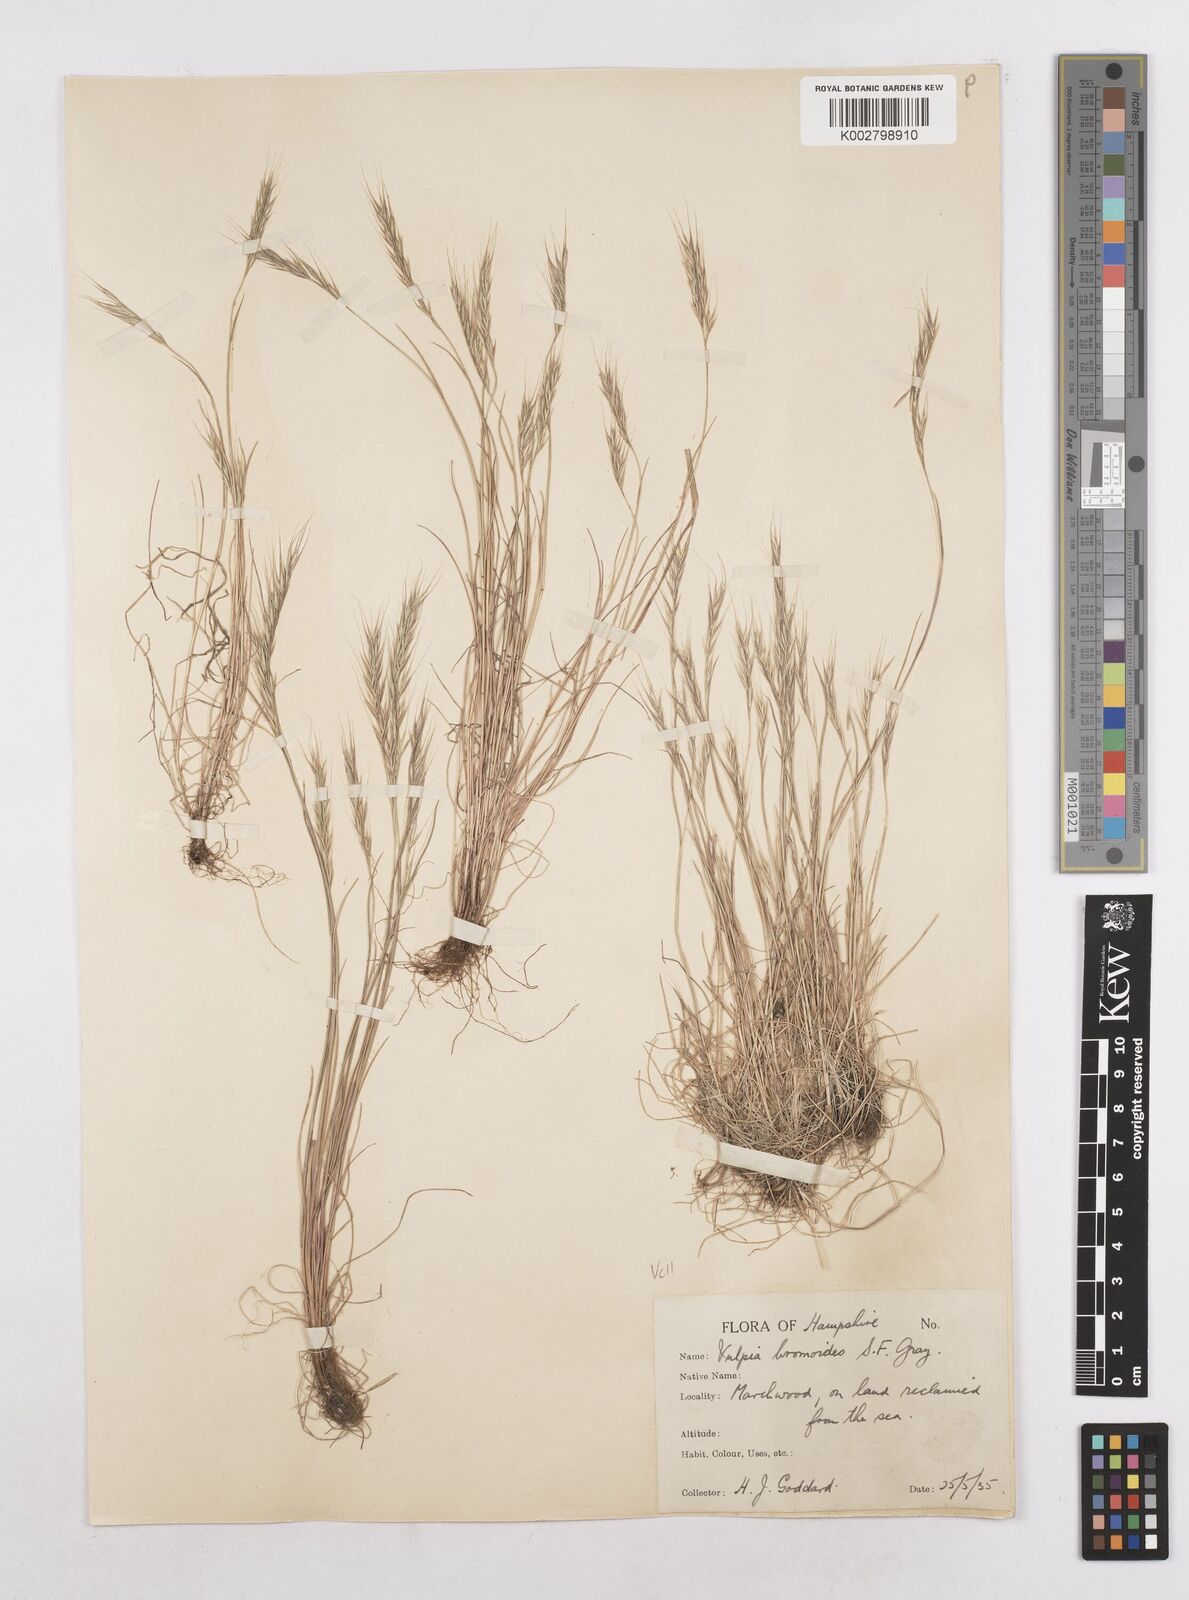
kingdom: Plantae
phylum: Tracheophyta
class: Liliopsida
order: Poales
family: Poaceae
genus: Festuca
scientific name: Festuca bromoides
